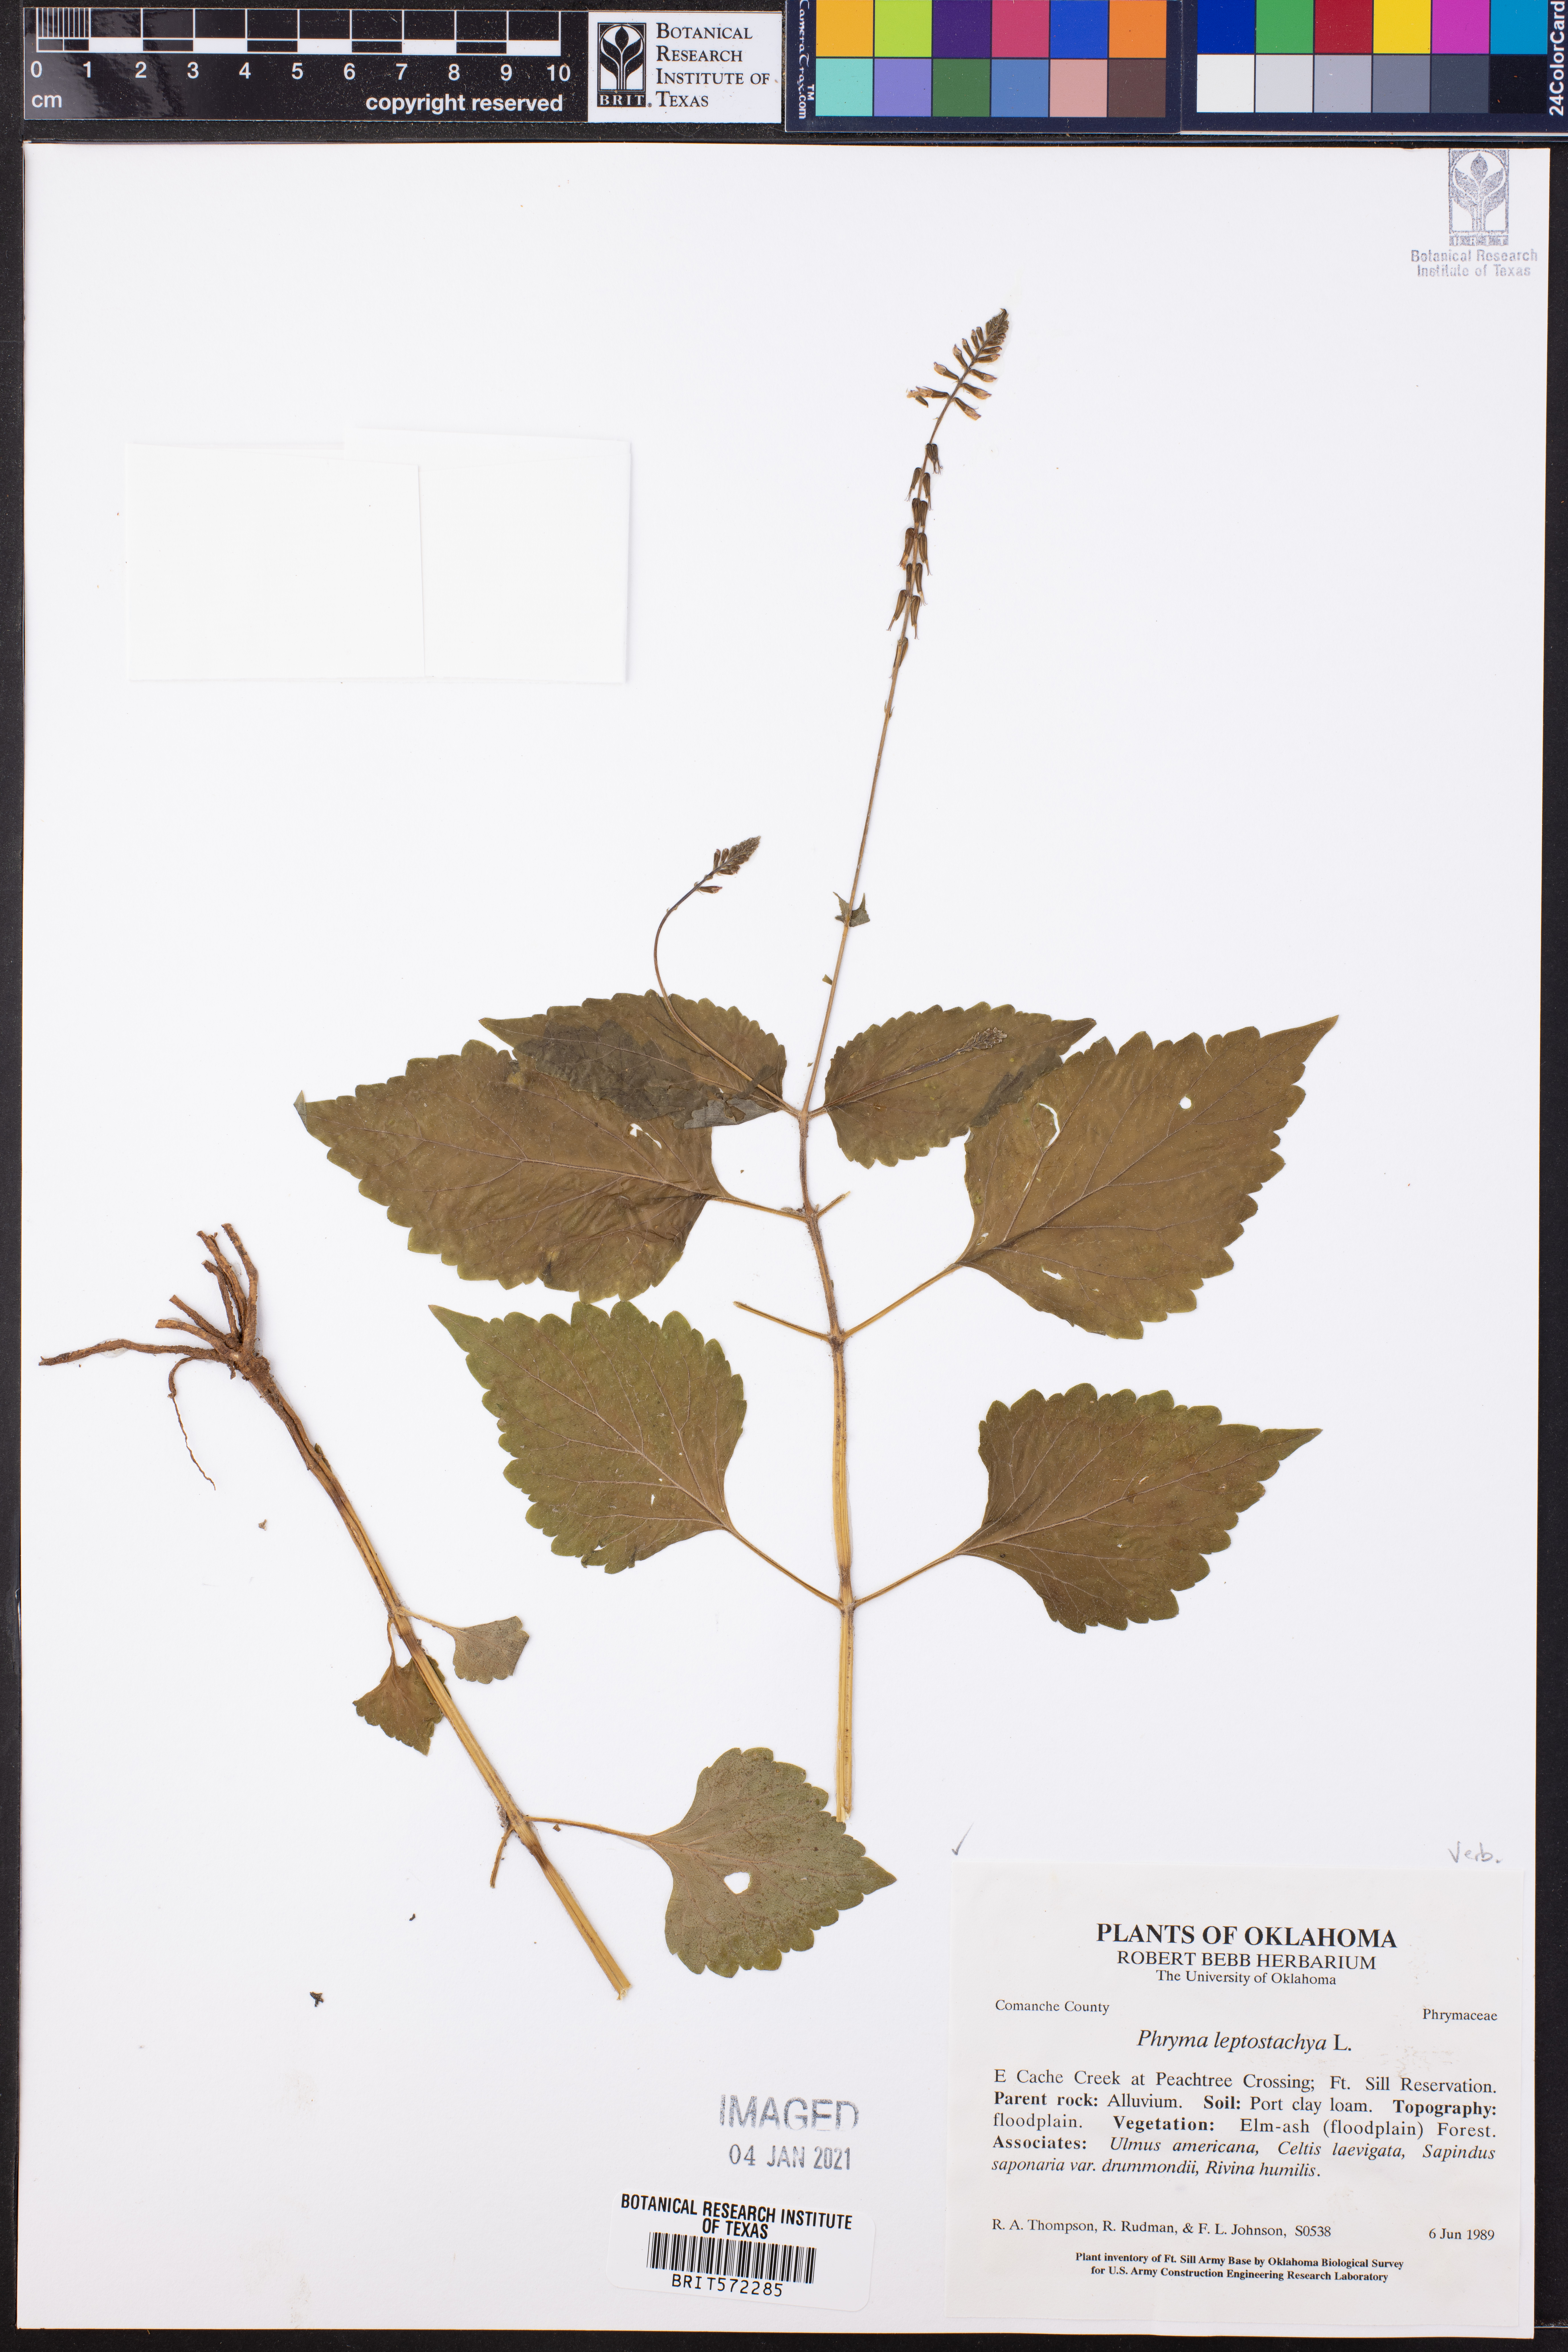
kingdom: Plantae
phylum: Tracheophyta
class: Magnoliopsida
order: Lamiales
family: Phrymaceae
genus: Phryma
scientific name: Phryma leptostachya
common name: American lopseed
